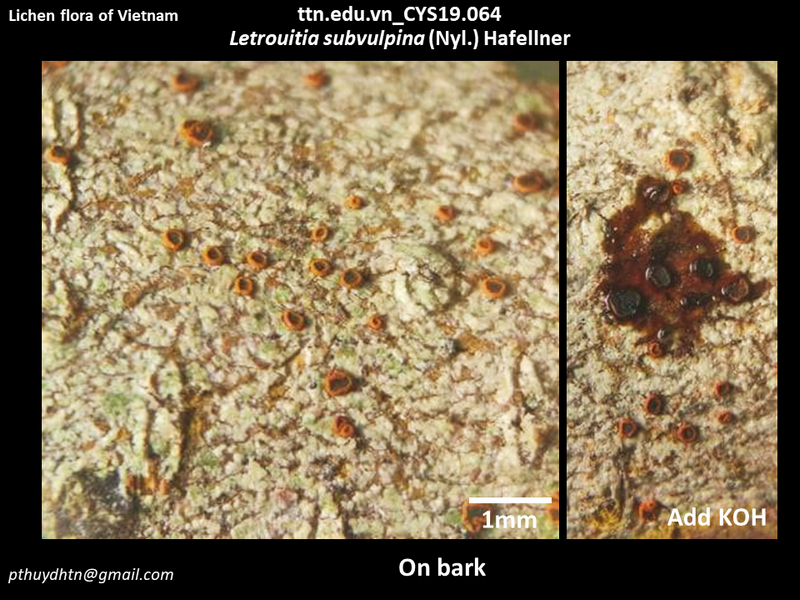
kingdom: Fungi
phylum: Ascomycota
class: Lecanoromycetes
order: Teloschistales
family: Letrouitiaceae
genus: Letrouitia
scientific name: Letrouitia subvulpina
